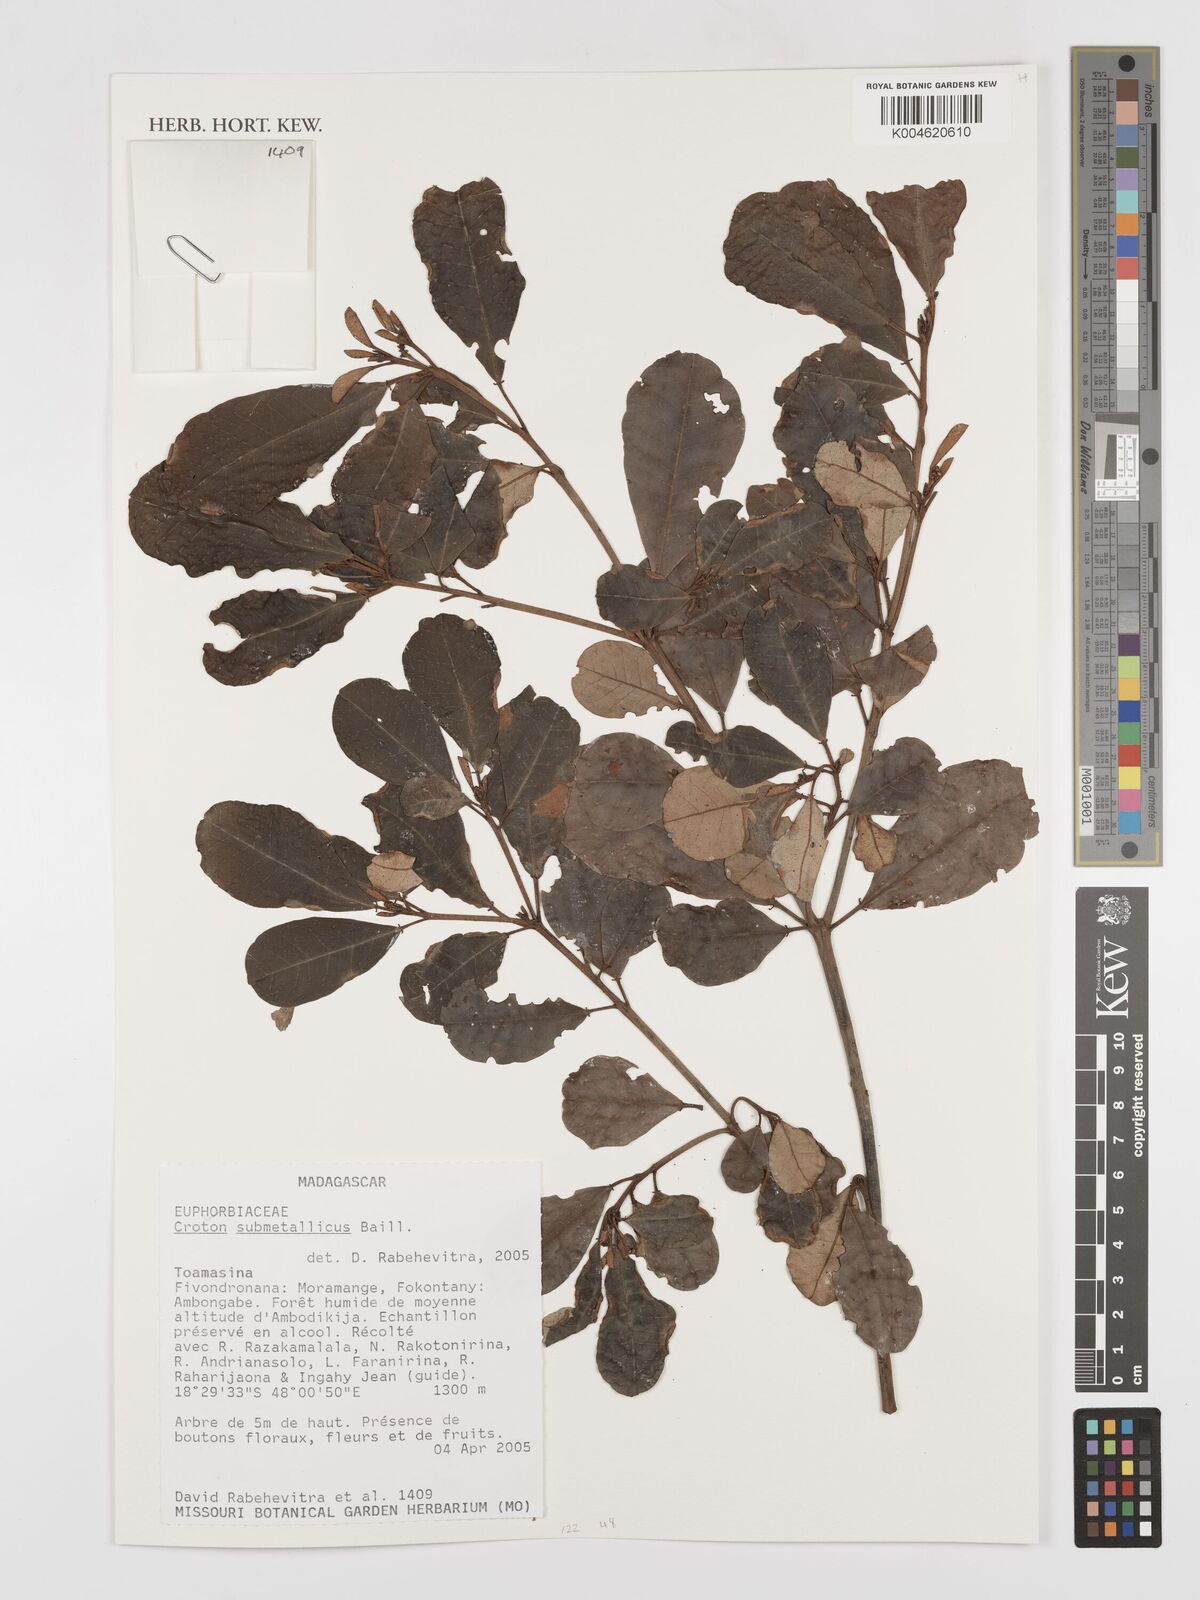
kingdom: Plantae
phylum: Tracheophyta
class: Magnoliopsida
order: Malpighiales
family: Euphorbiaceae
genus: Croton
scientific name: Croton submetallicus
